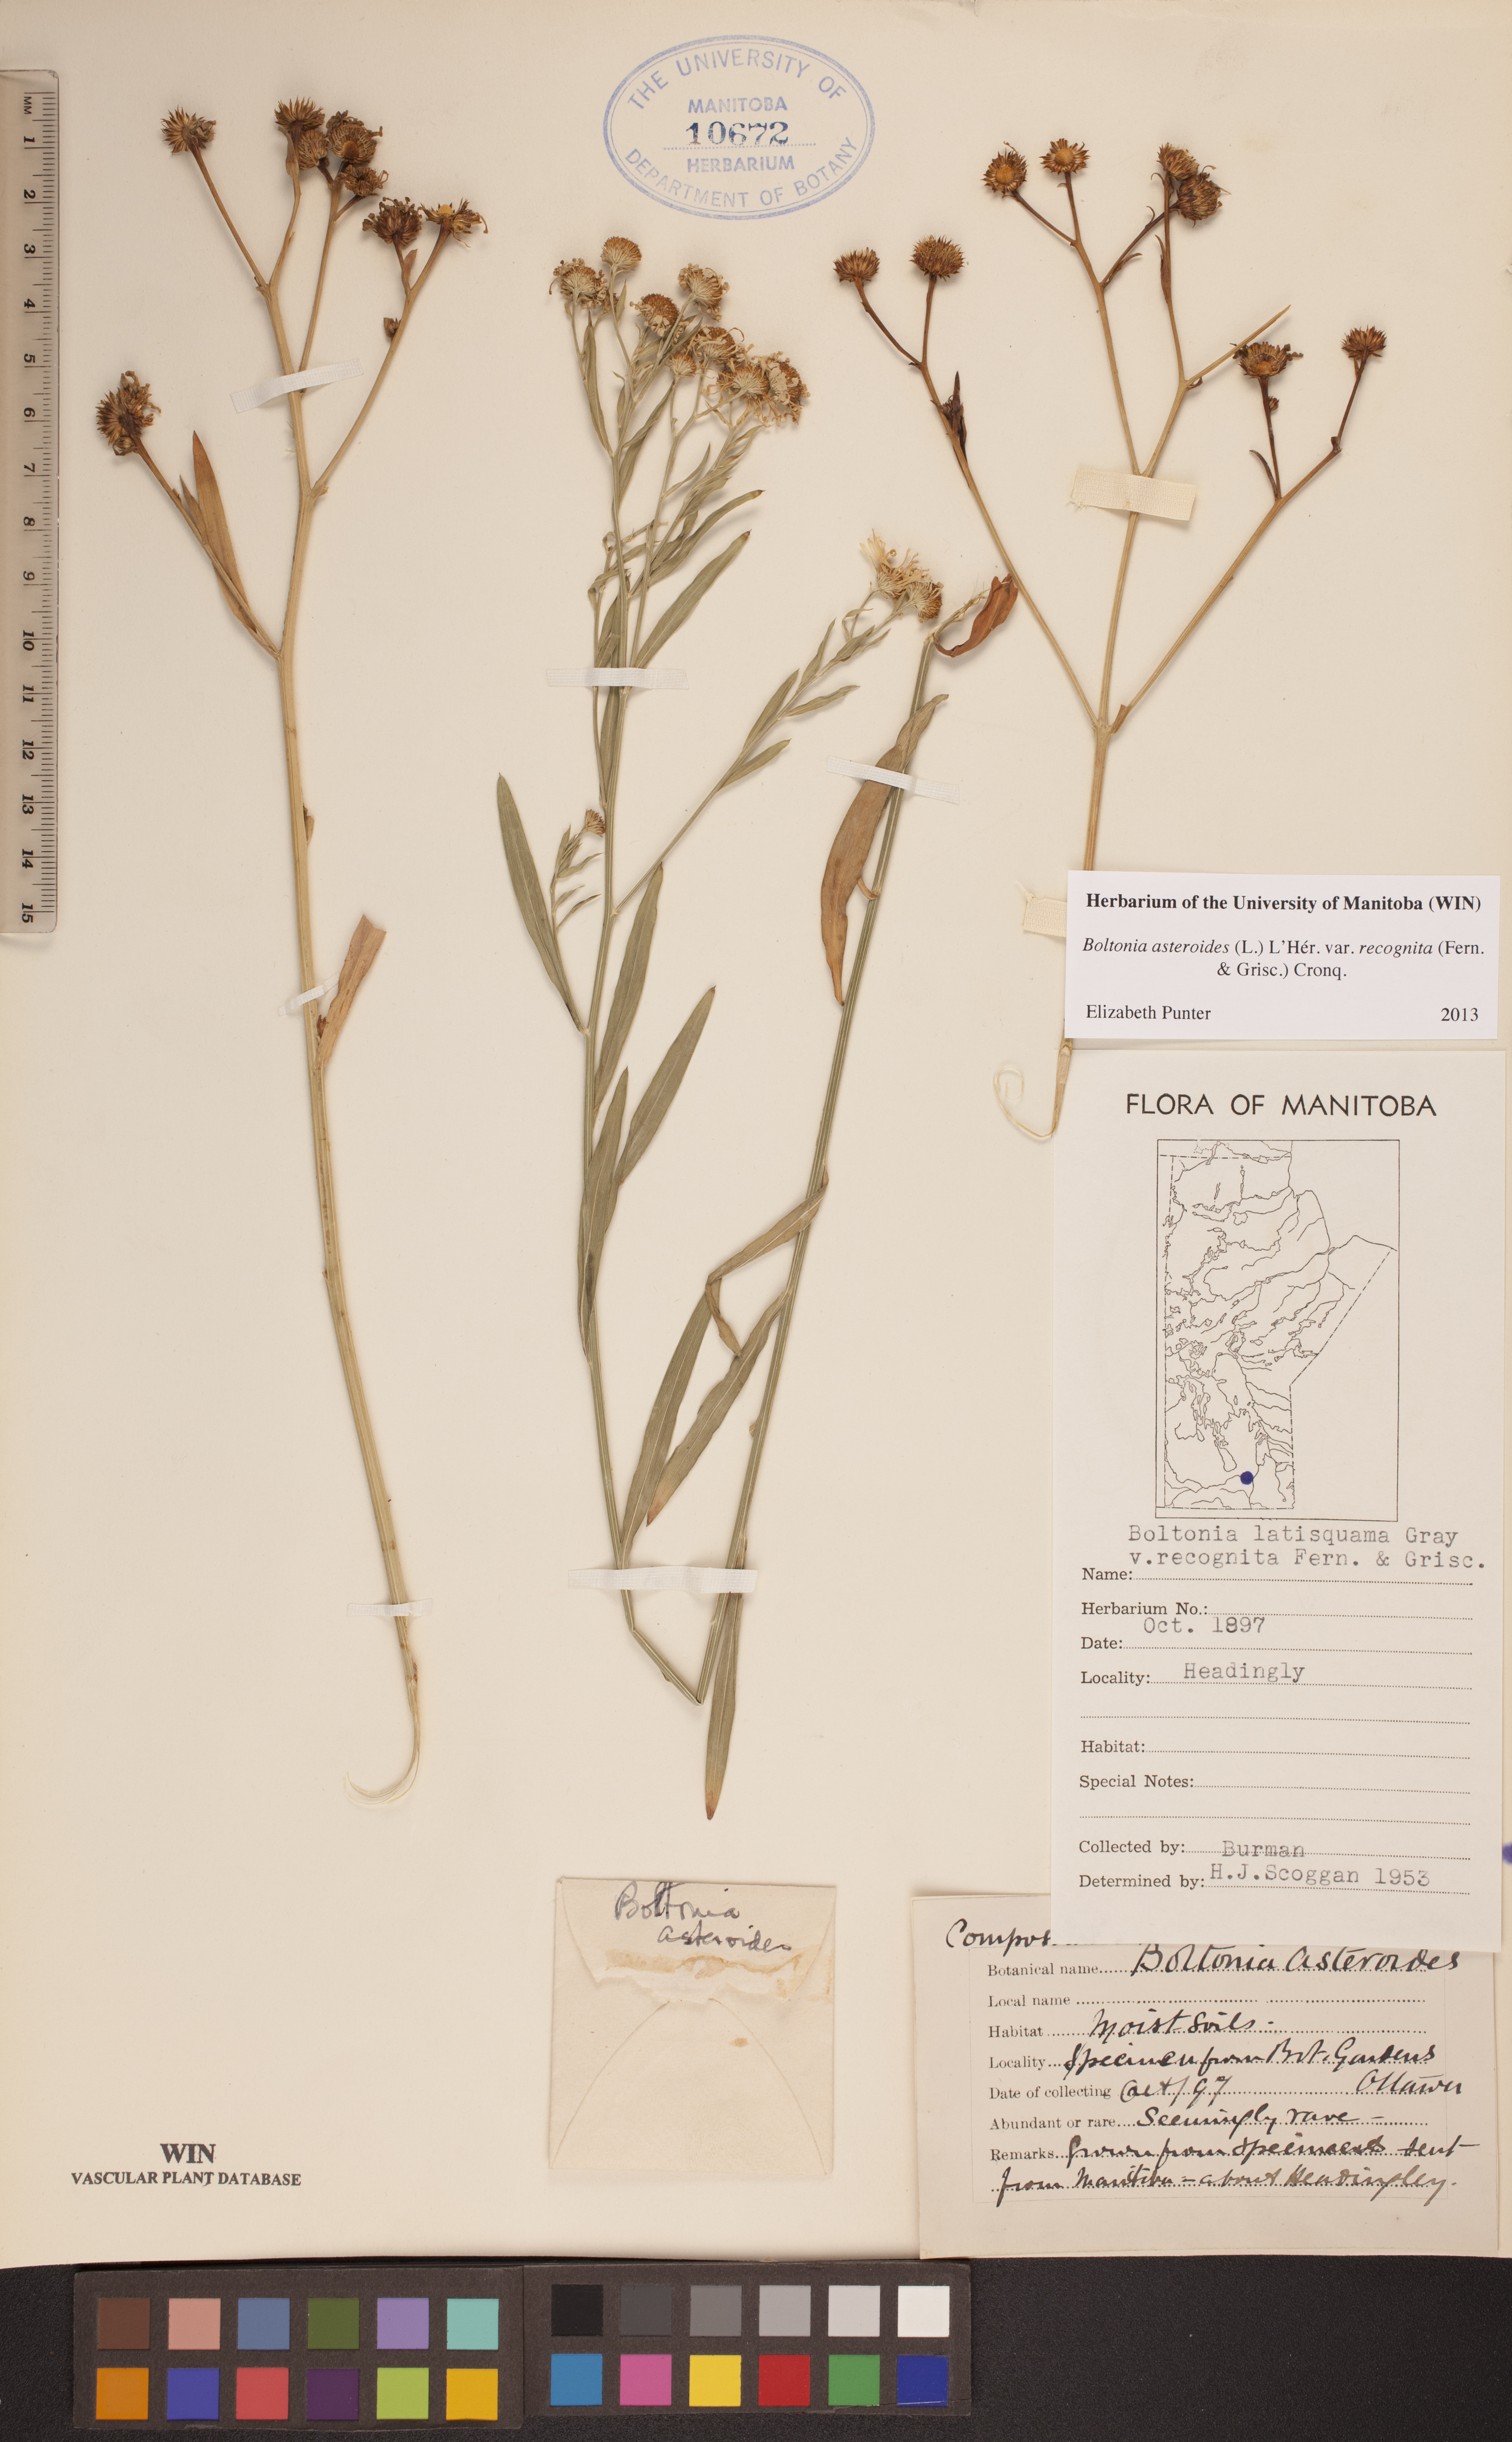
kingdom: Plantae
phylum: Tracheophyta
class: Magnoliopsida
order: Asterales
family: Asteraceae
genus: Boltonia
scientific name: Boltonia asteroides
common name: False chamomile
